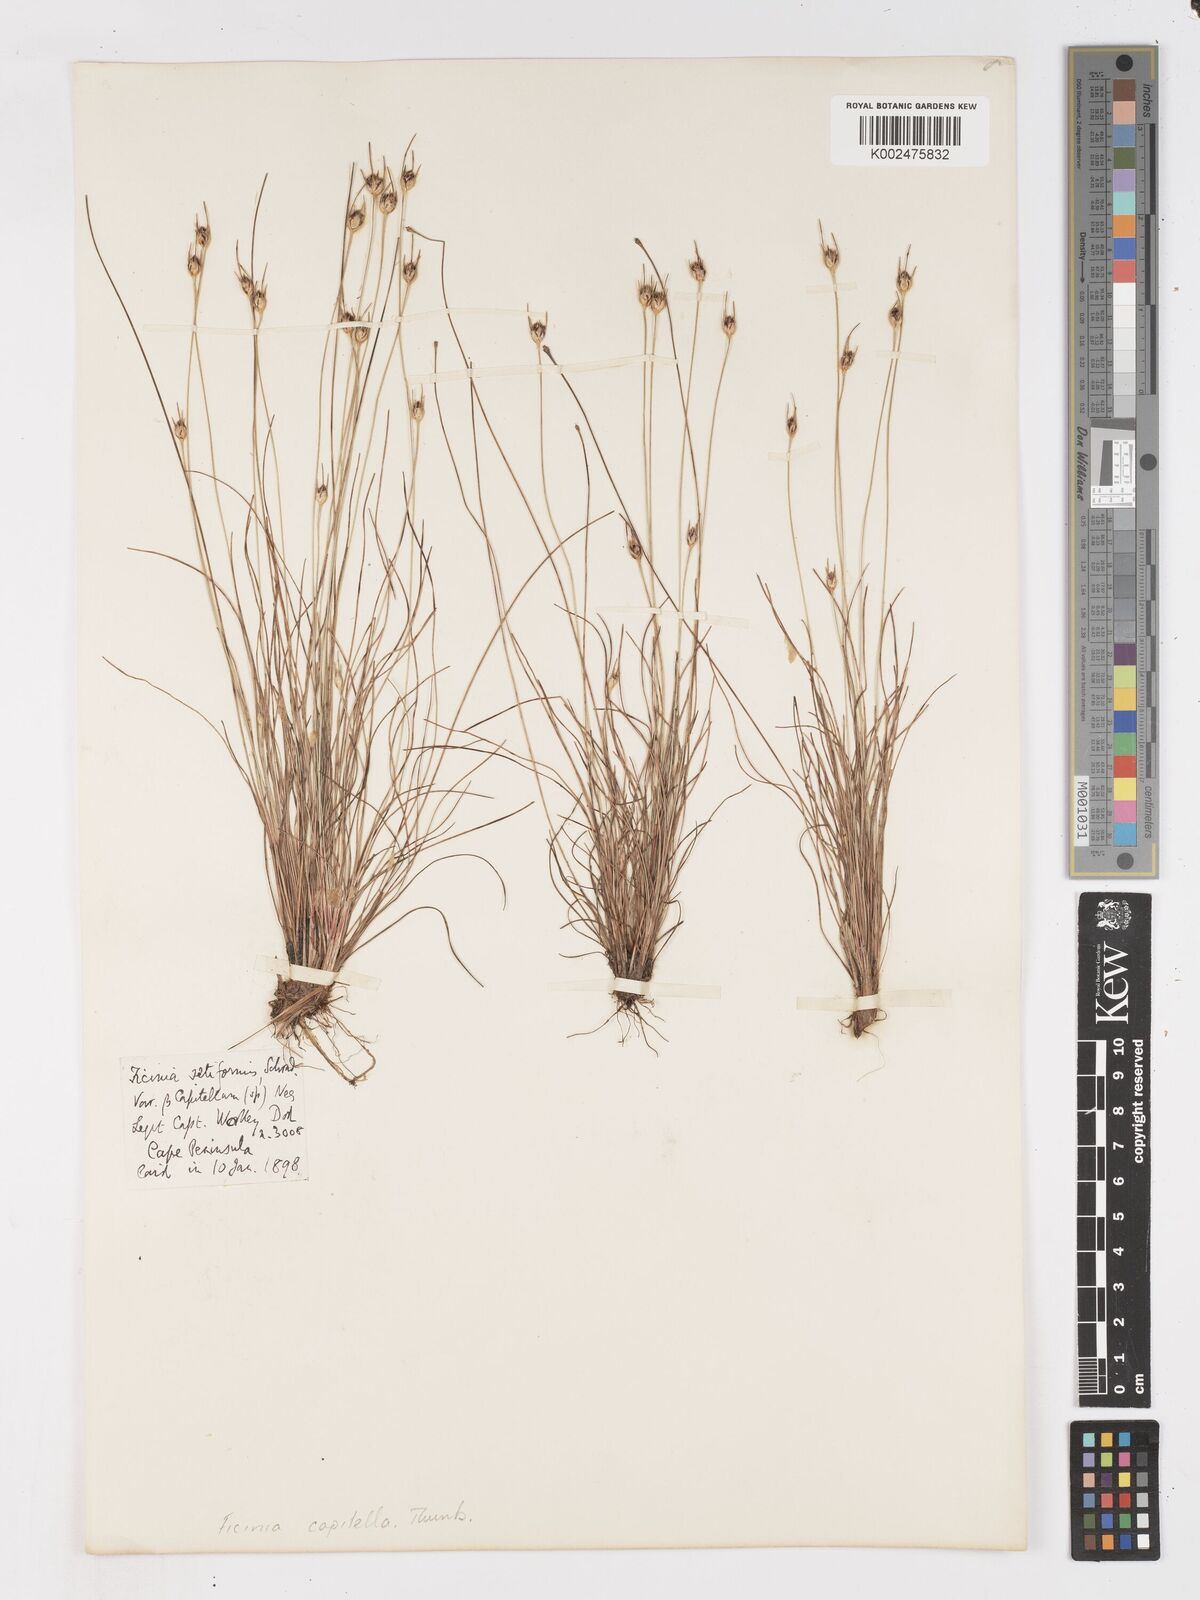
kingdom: Plantae
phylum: Tracheophyta
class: Liliopsida
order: Poales
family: Cyperaceae
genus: Ficinia
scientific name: Ficinia capitella
